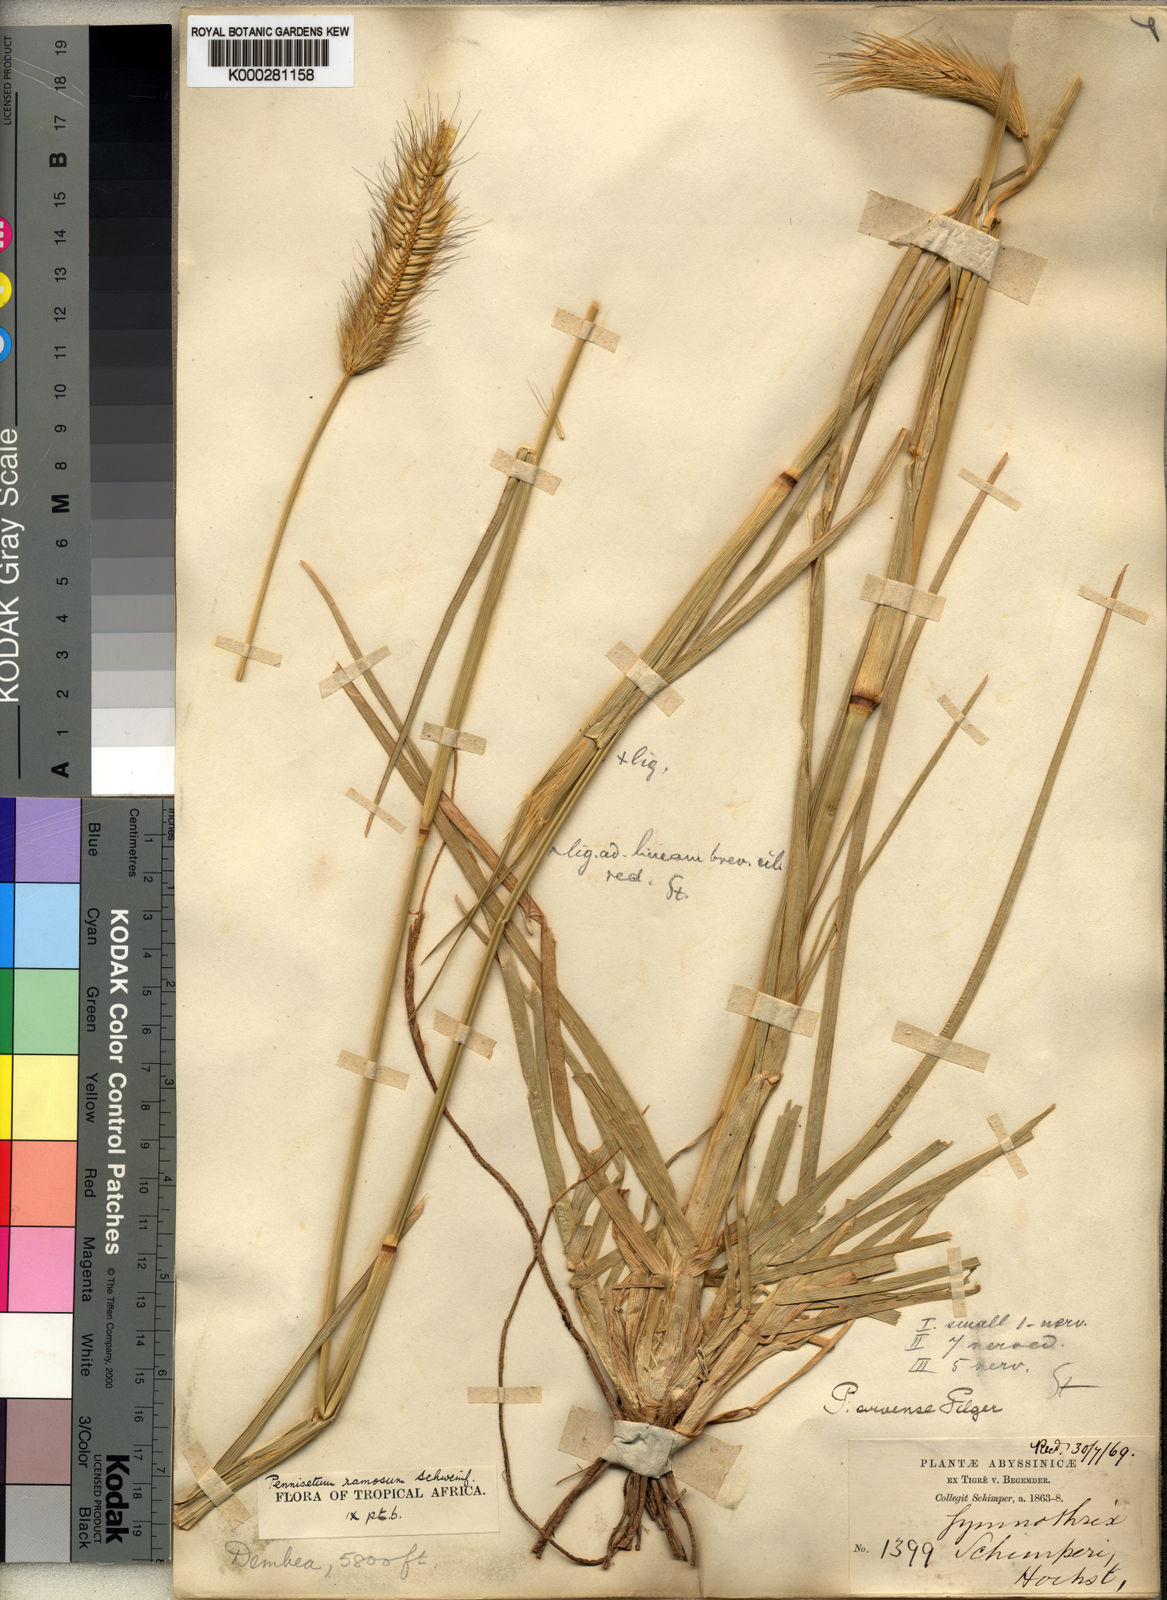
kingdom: Plantae
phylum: Tracheophyta
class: Liliopsida
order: Poales
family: Poaceae
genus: Cenchrus
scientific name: Cenchrus ramosus
